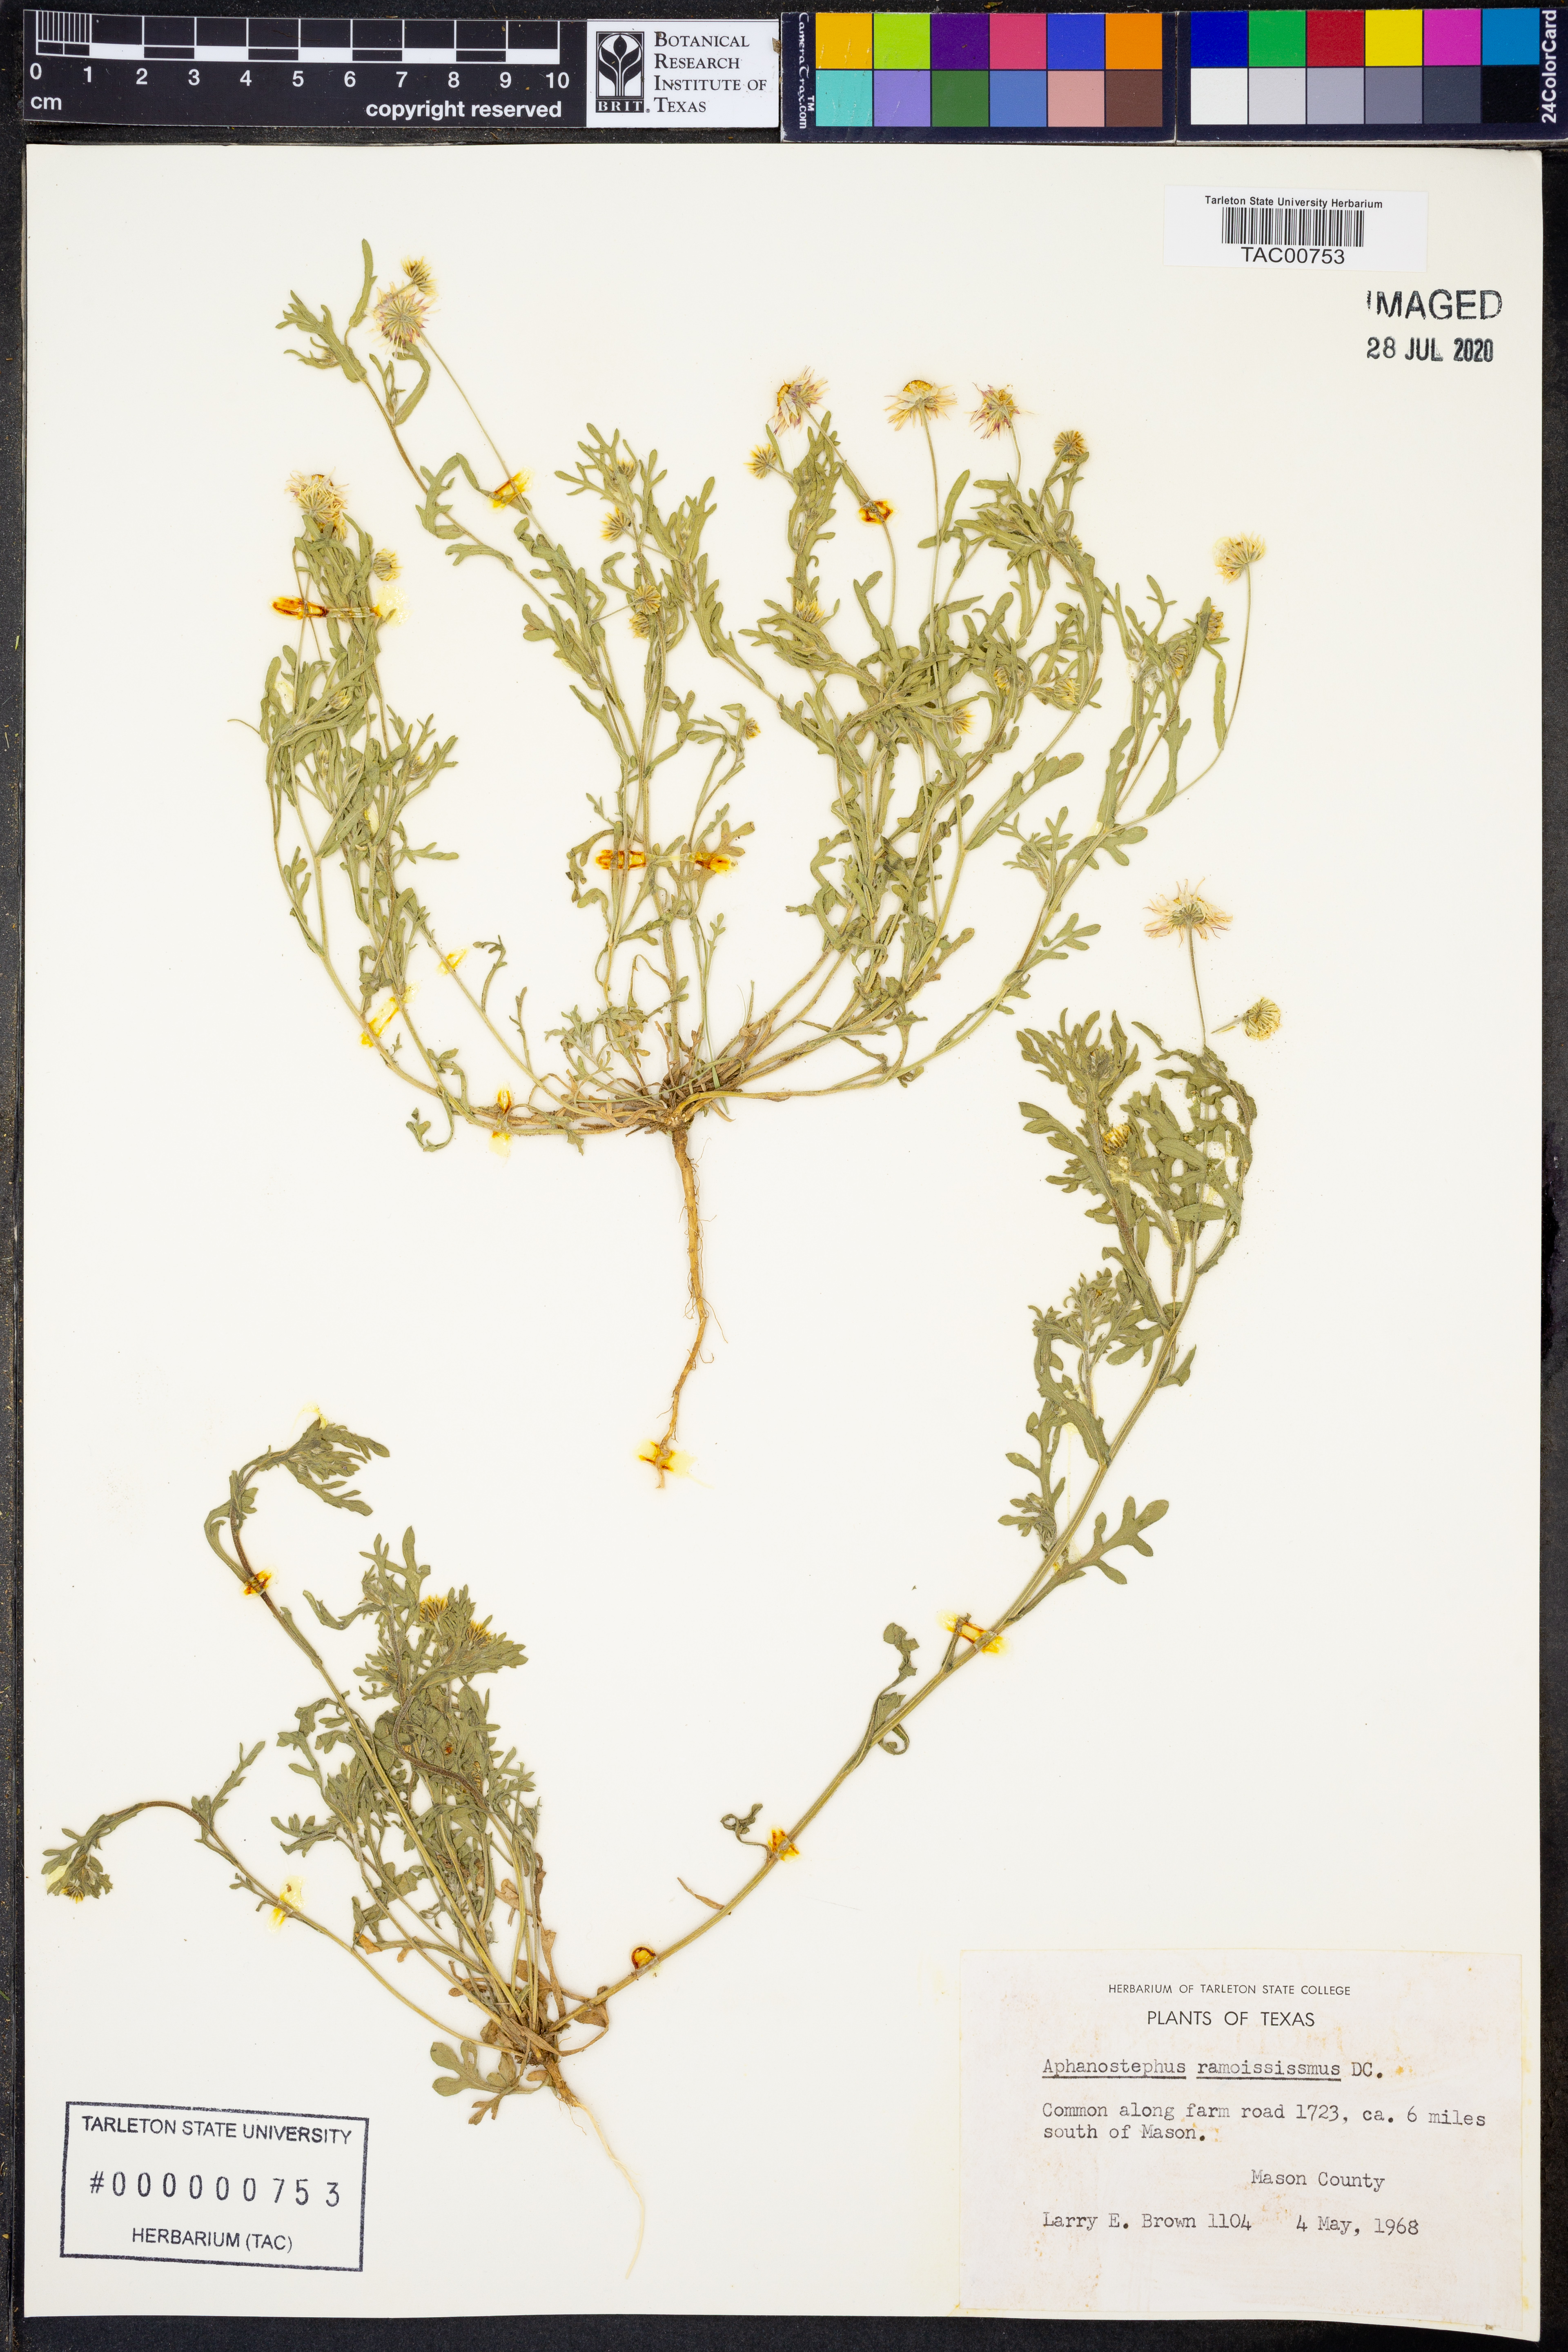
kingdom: Plantae
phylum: Tracheophyta
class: Magnoliopsida
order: Asterales
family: Asteraceae
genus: Aphanostephus
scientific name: Aphanostephus ramosissimus
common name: Plains lazy daisy
